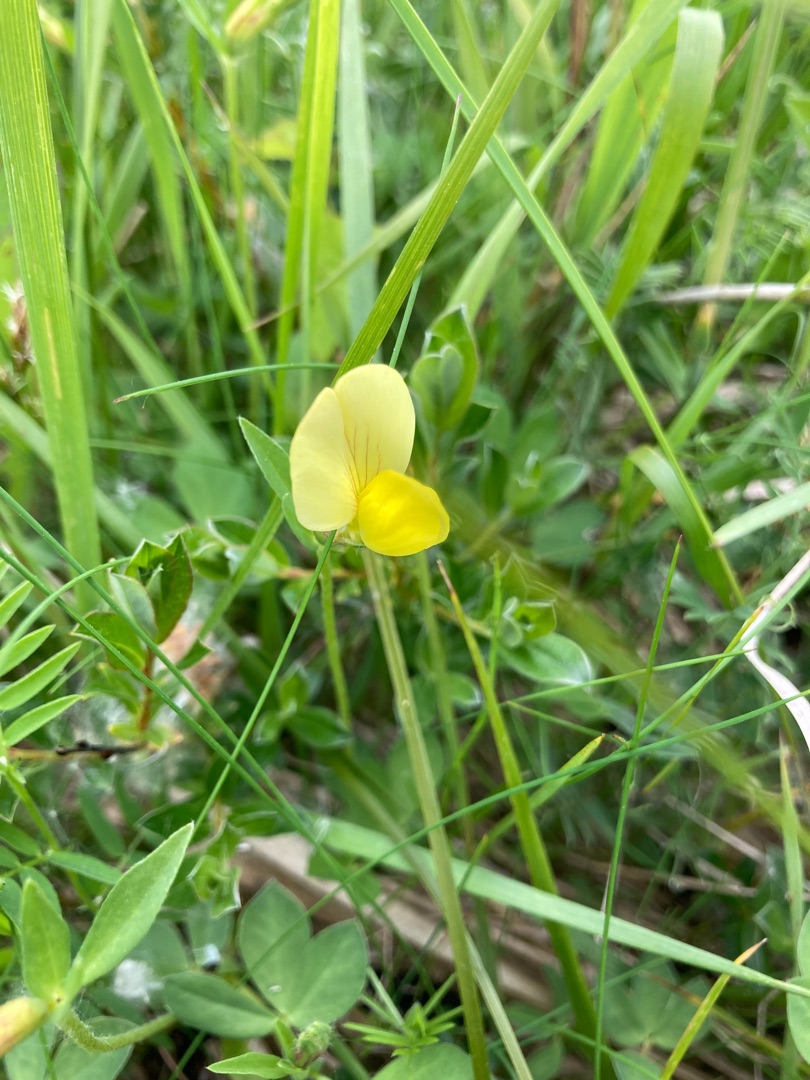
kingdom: Plantae
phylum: Tracheophyta
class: Magnoliopsida
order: Fabales
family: Fabaceae
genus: Lotus
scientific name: Lotus maritimus
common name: Kantbælg
